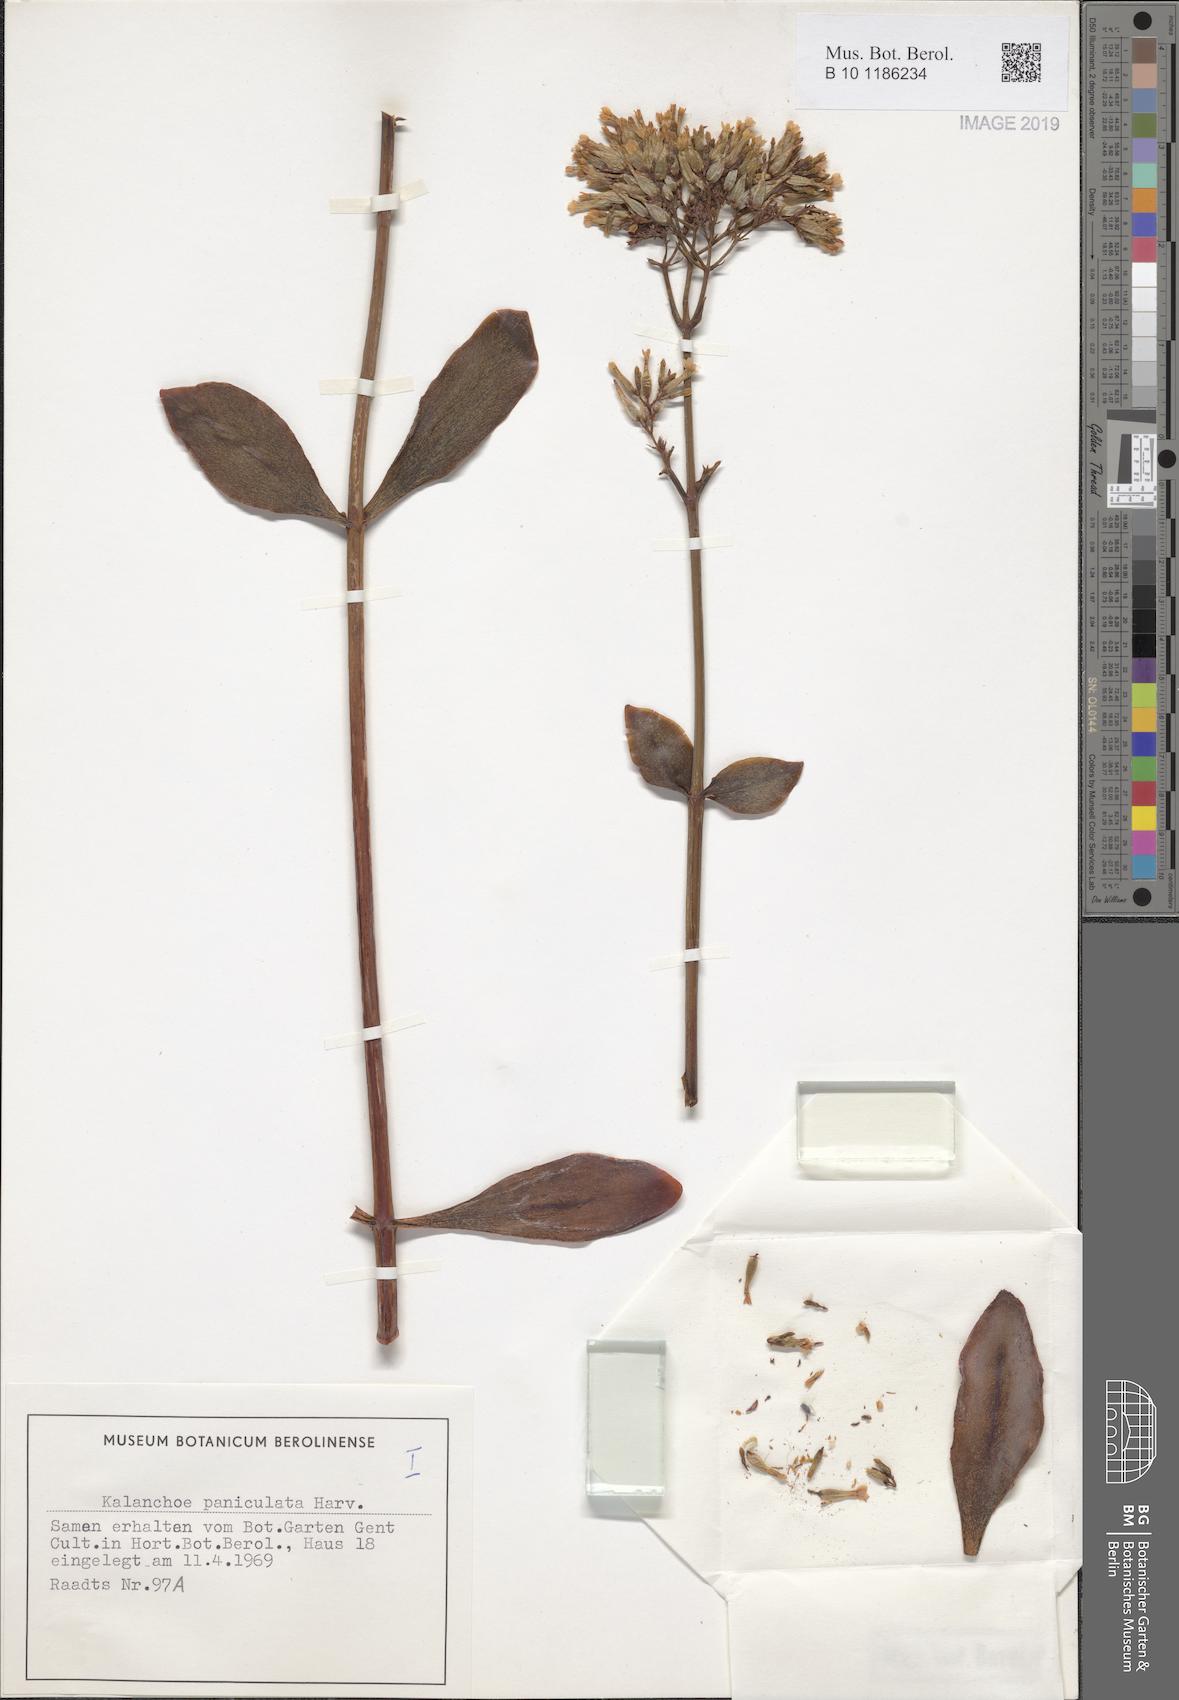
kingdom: Plantae
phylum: Tracheophyta
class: Magnoliopsida
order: Saxifragales
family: Crassulaceae
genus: Kalanchoe
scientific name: Kalanchoe paniculata
